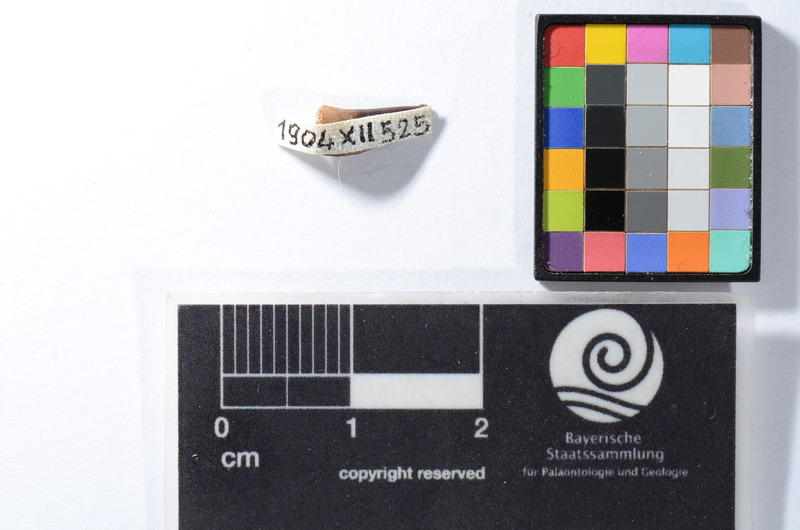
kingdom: Animalia
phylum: Chordata
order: Perciformes
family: Sphyraenidae
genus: Sphyraena
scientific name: Sphyraena Saurocephalus fajumensis
